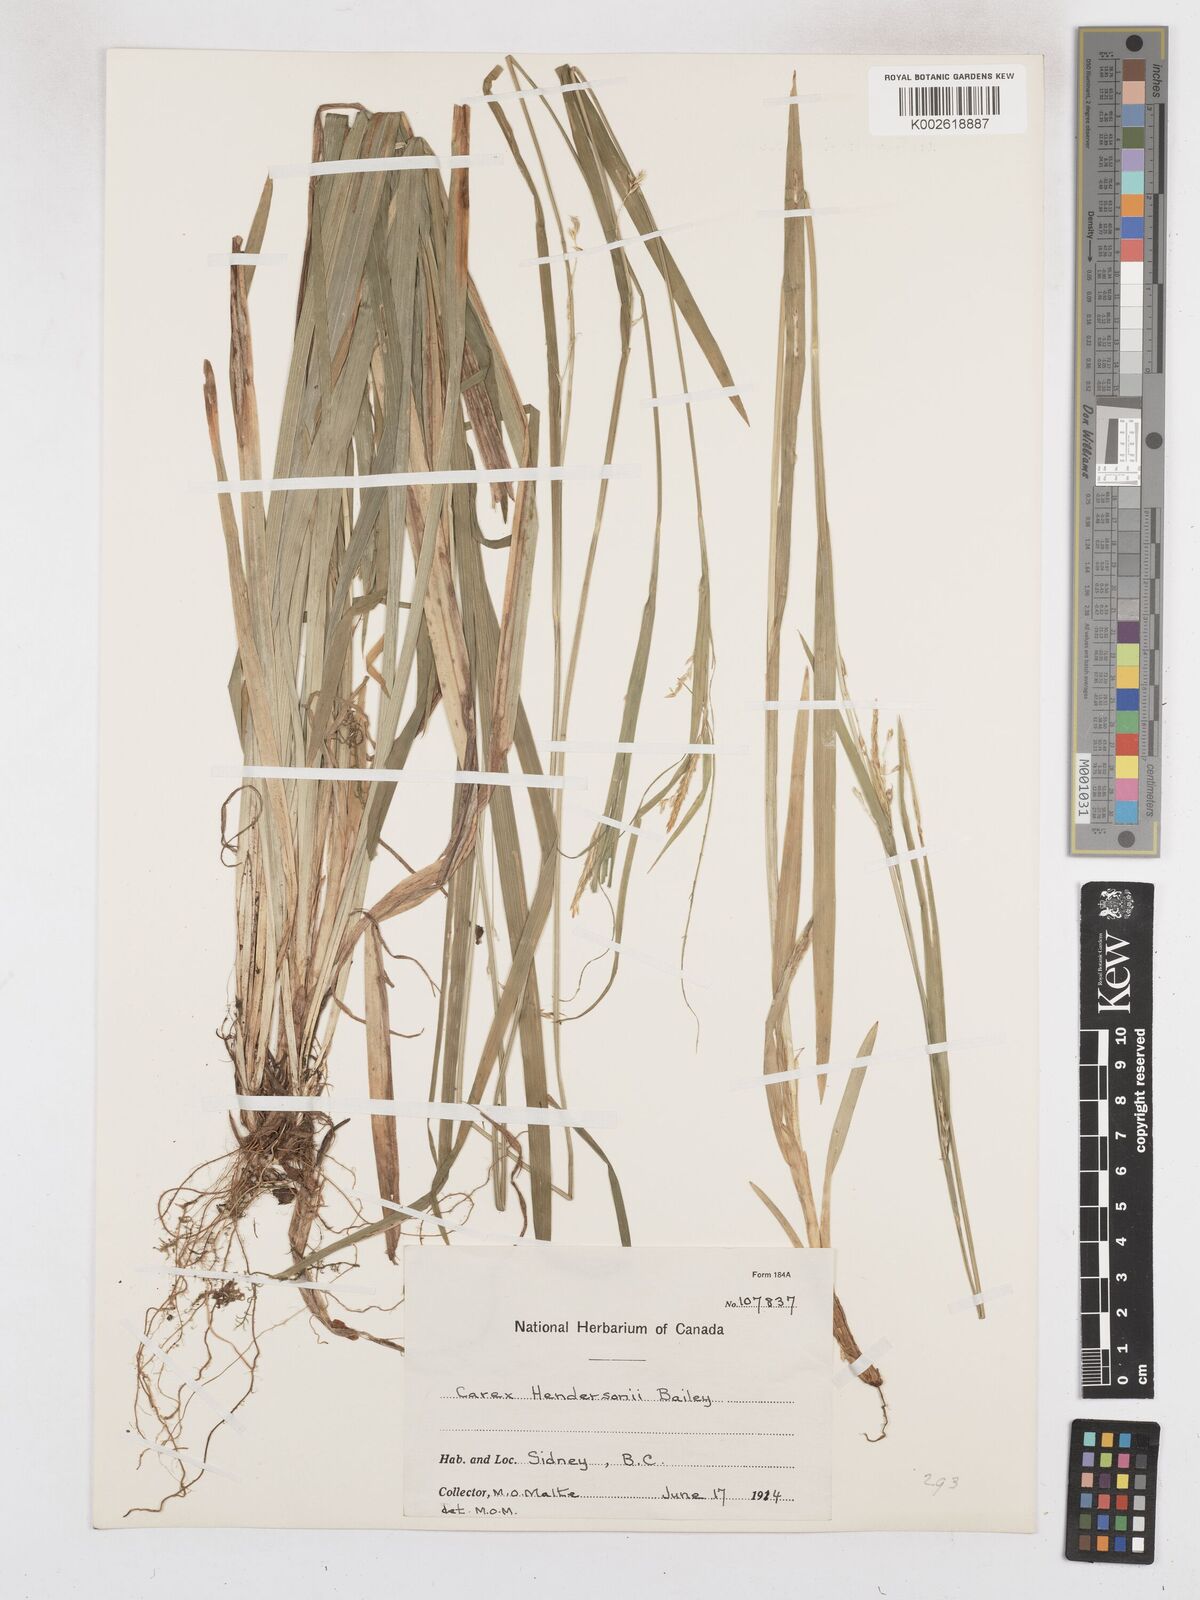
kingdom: Plantae
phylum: Tracheophyta
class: Liliopsida
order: Poales
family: Cyperaceae
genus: Carex
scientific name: Carex hendersonii
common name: Henderson's sedge
